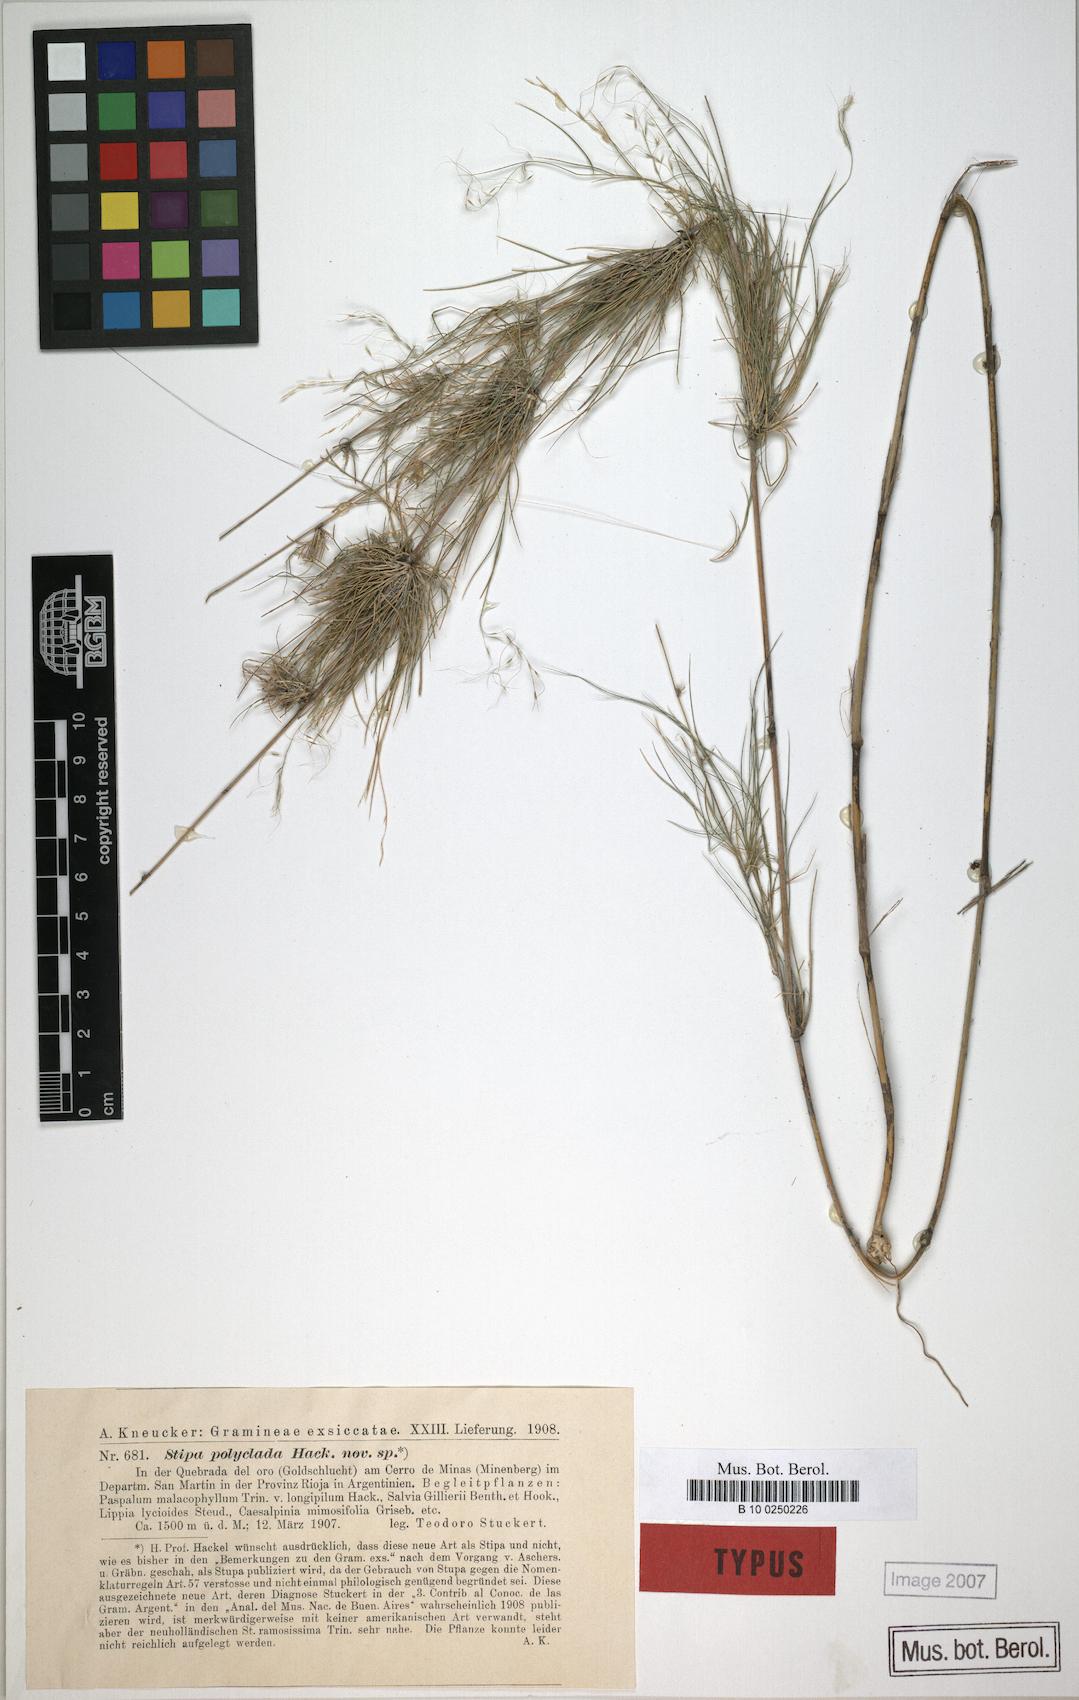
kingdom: Plantae
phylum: Tracheophyta
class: Liliopsida
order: Poales
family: Poaceae
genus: Stipa
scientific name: Stipa polyclada
